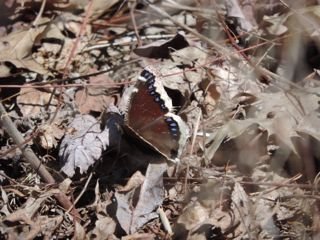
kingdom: Animalia
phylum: Arthropoda
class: Insecta
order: Lepidoptera
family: Nymphalidae
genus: Nymphalis
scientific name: Nymphalis antiopa
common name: Mourning Cloak
